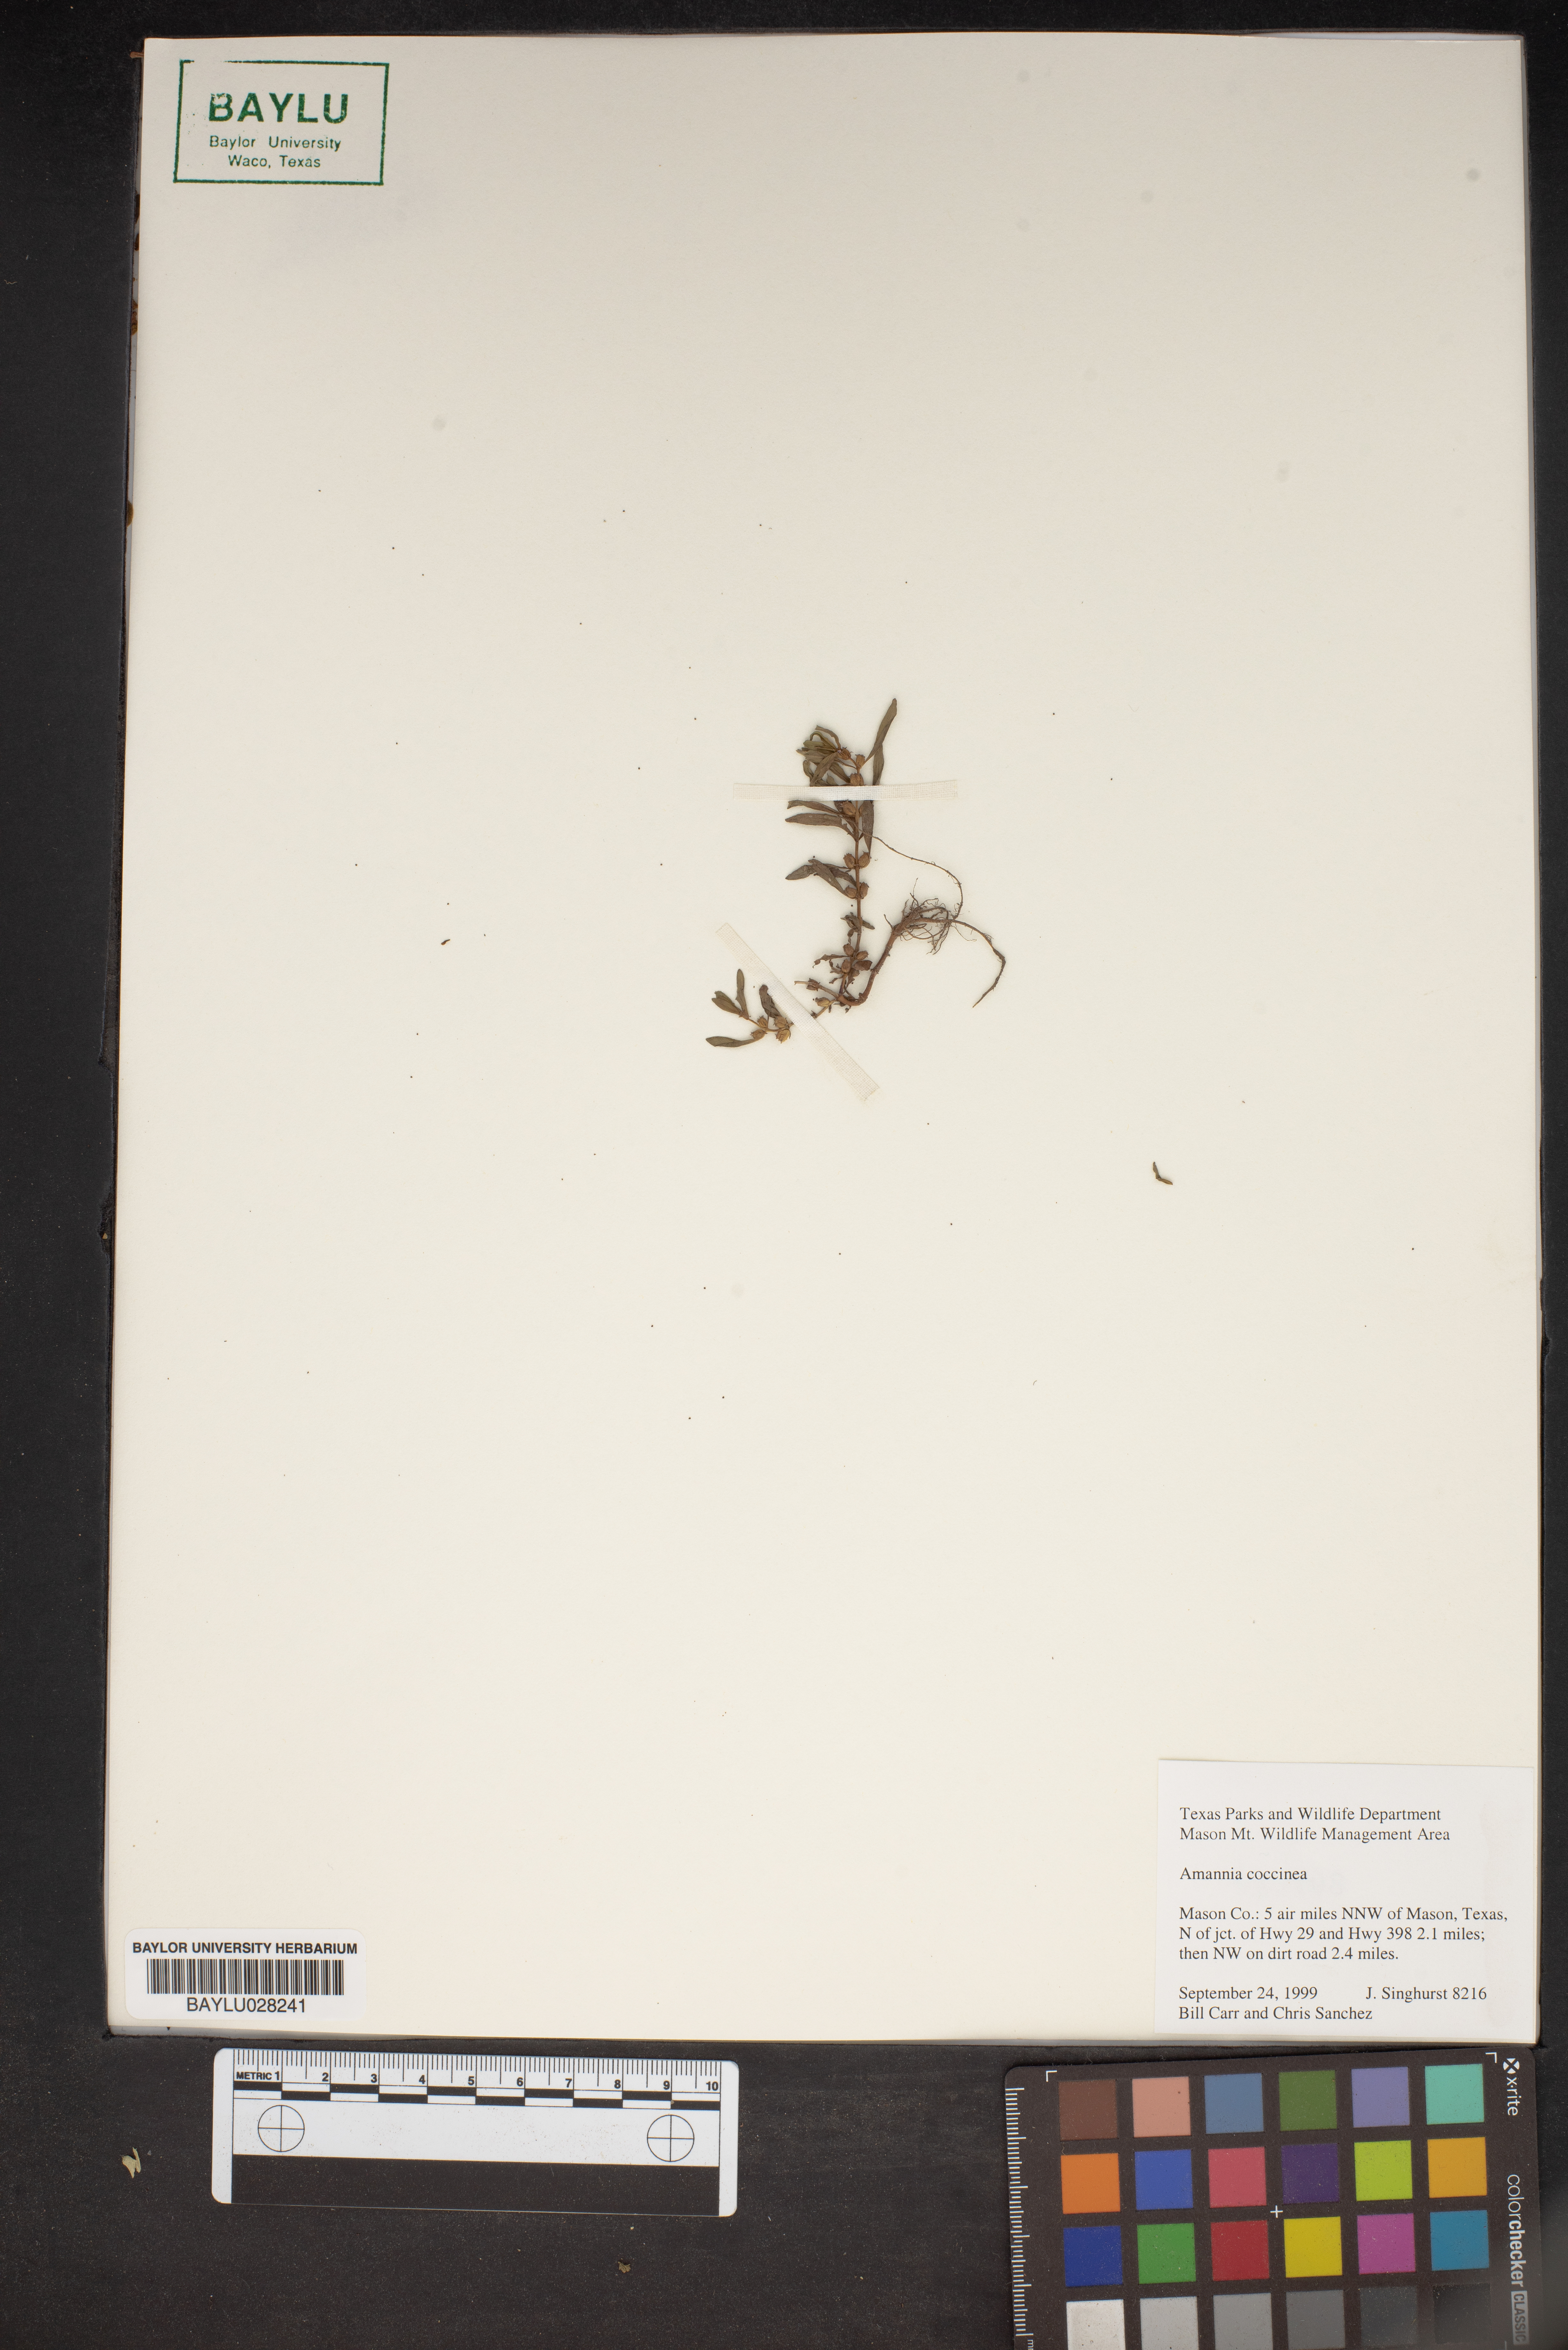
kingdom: Plantae
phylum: Tracheophyta
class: Magnoliopsida
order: Myrtales
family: Lythraceae
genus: Ammannia
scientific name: Ammannia coccinea
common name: Valley redstem
